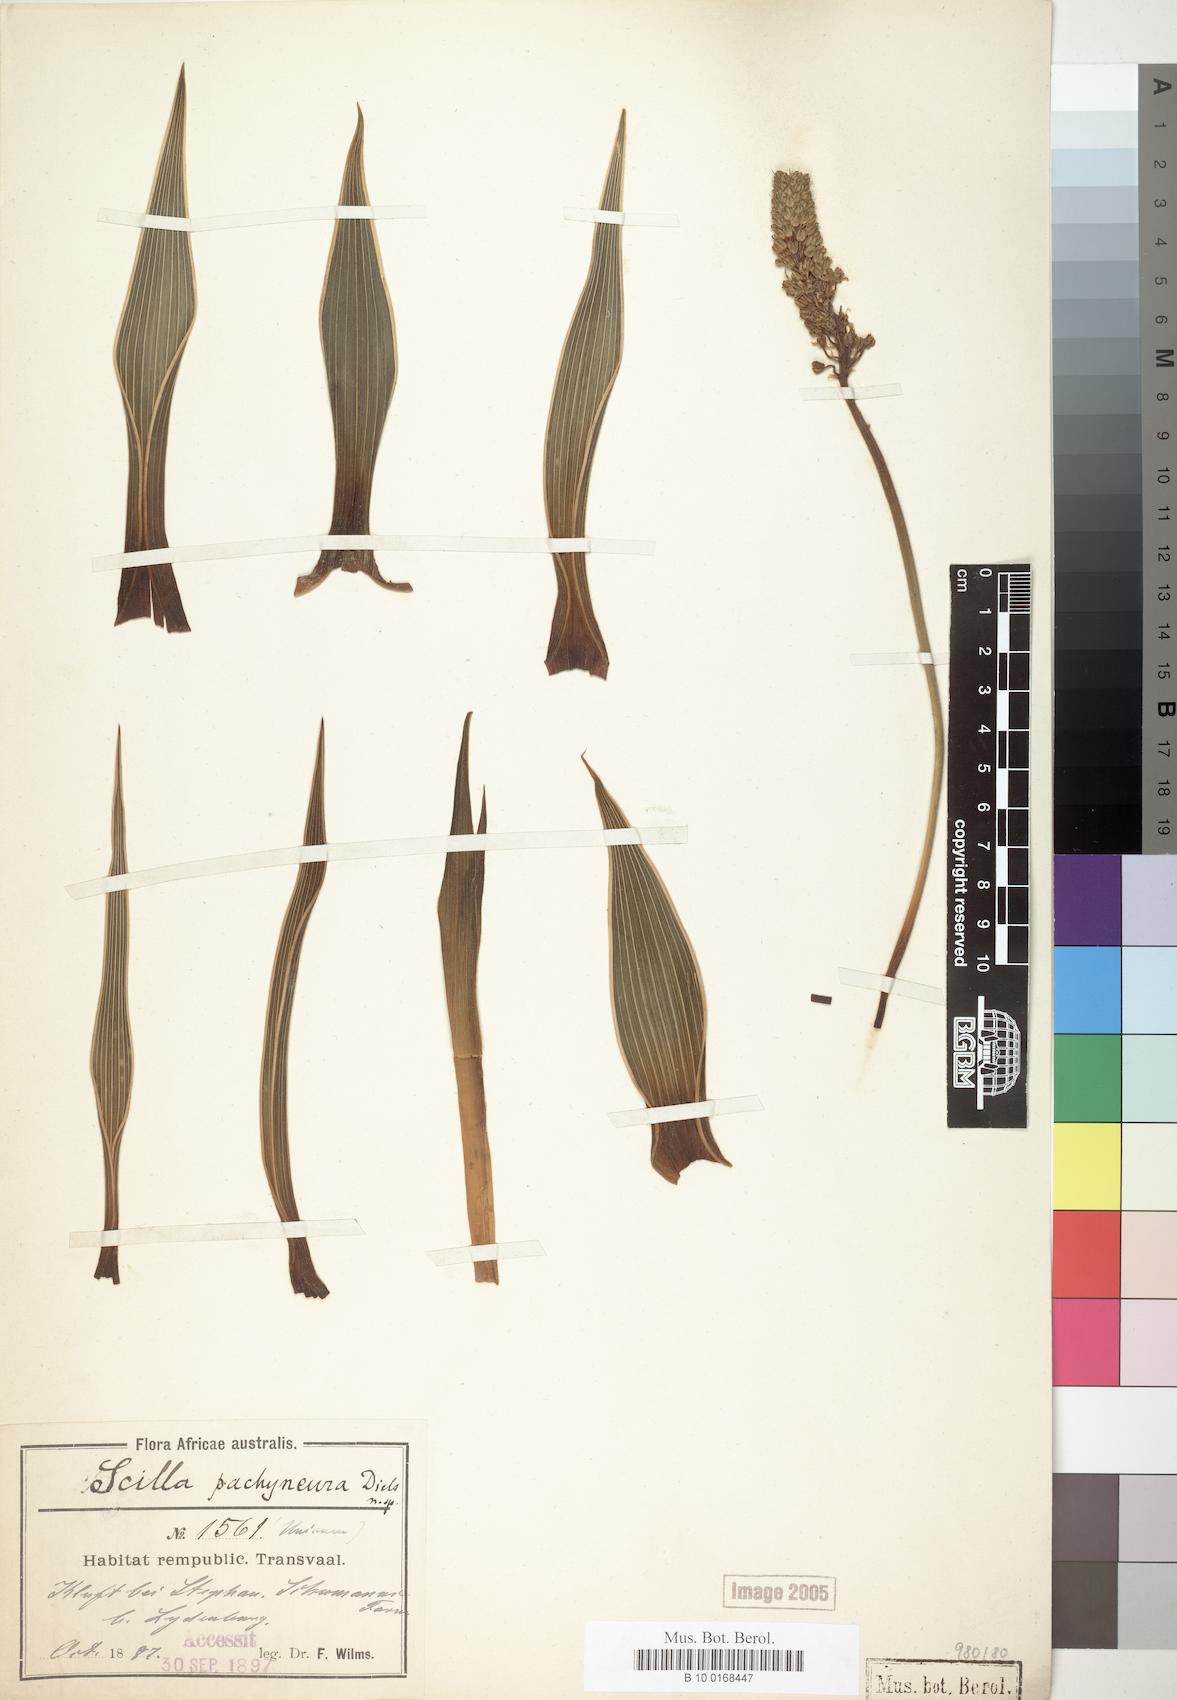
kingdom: Plantae
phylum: Tracheophyta
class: Liliopsida
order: Asparagales
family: Asparagaceae
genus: Scilla
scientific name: Scilla
